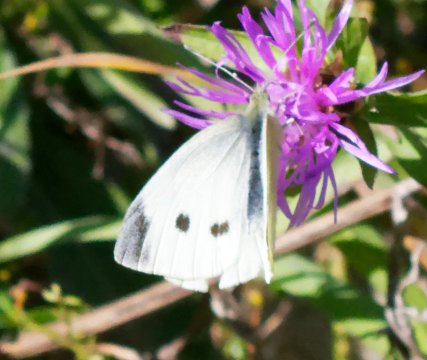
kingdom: Animalia
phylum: Arthropoda
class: Insecta
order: Lepidoptera
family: Pieridae
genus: Pieris
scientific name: Pieris rapae
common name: Cabbage White
